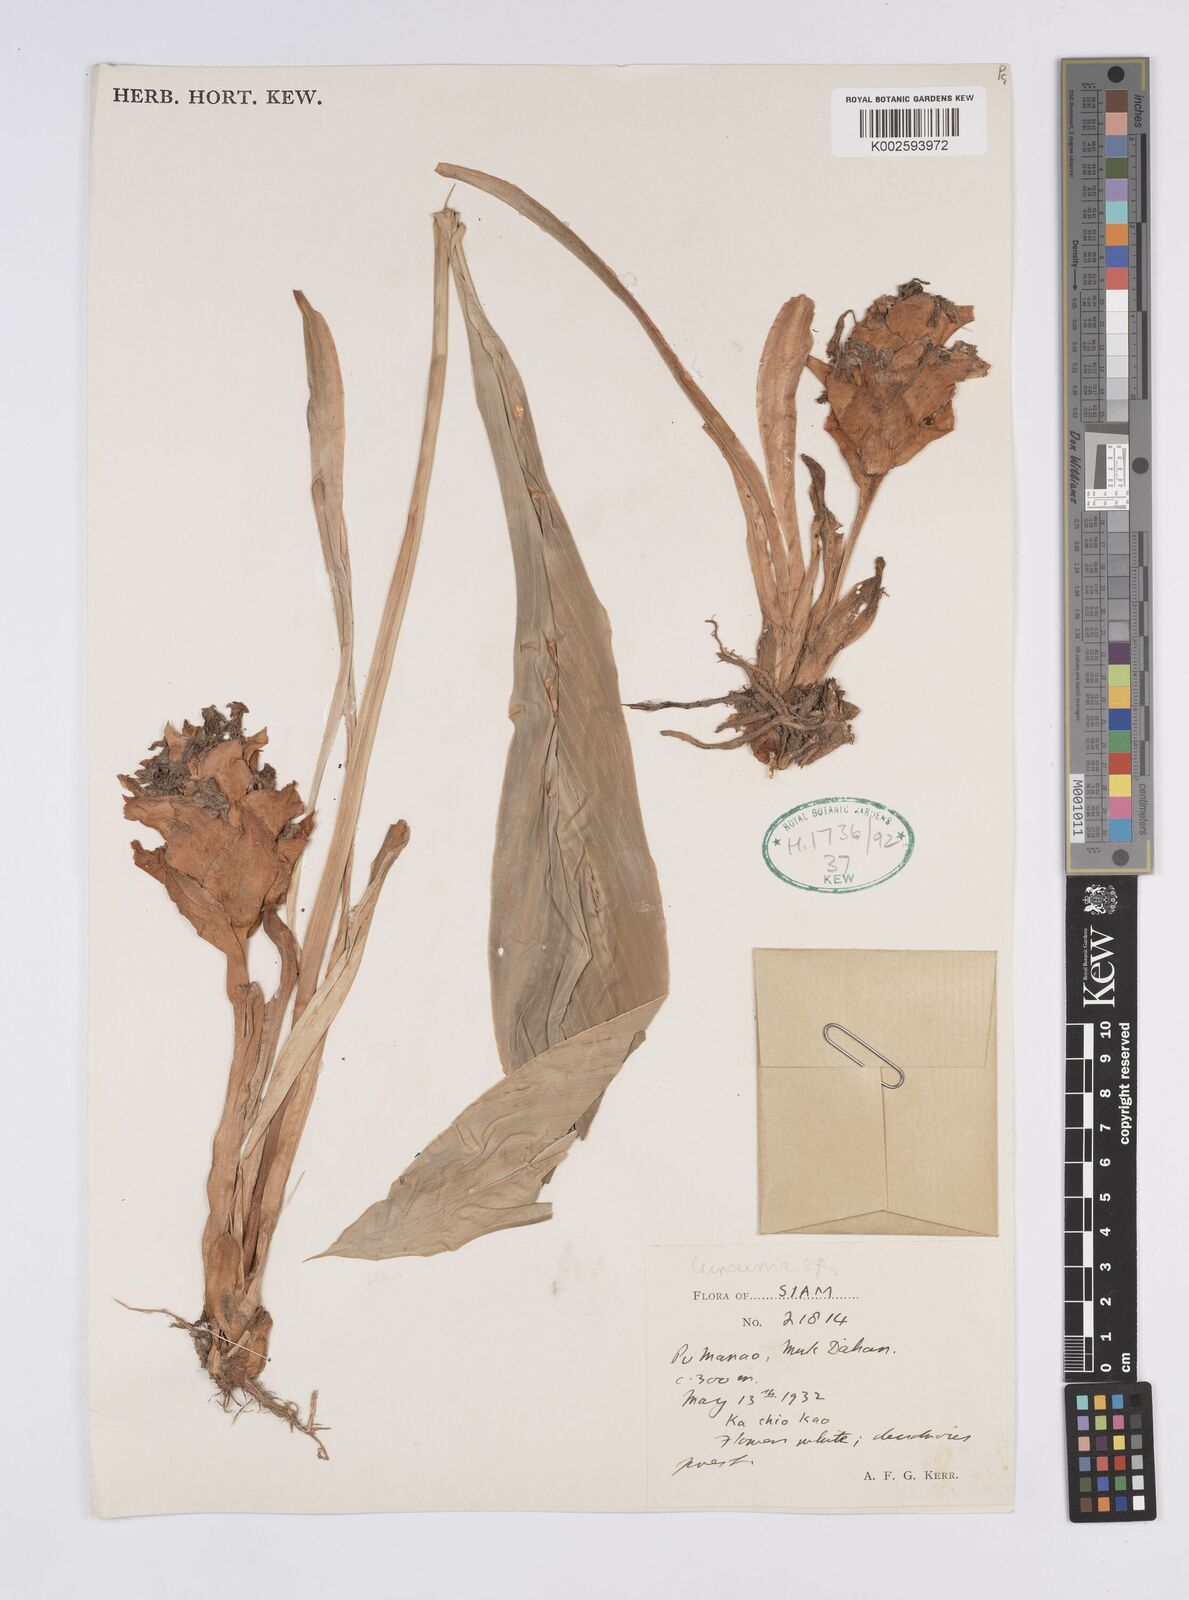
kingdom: Plantae
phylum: Tracheophyta
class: Liliopsida
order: Zingiberales
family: Zingiberaceae
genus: Curcuma
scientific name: Curcuma
